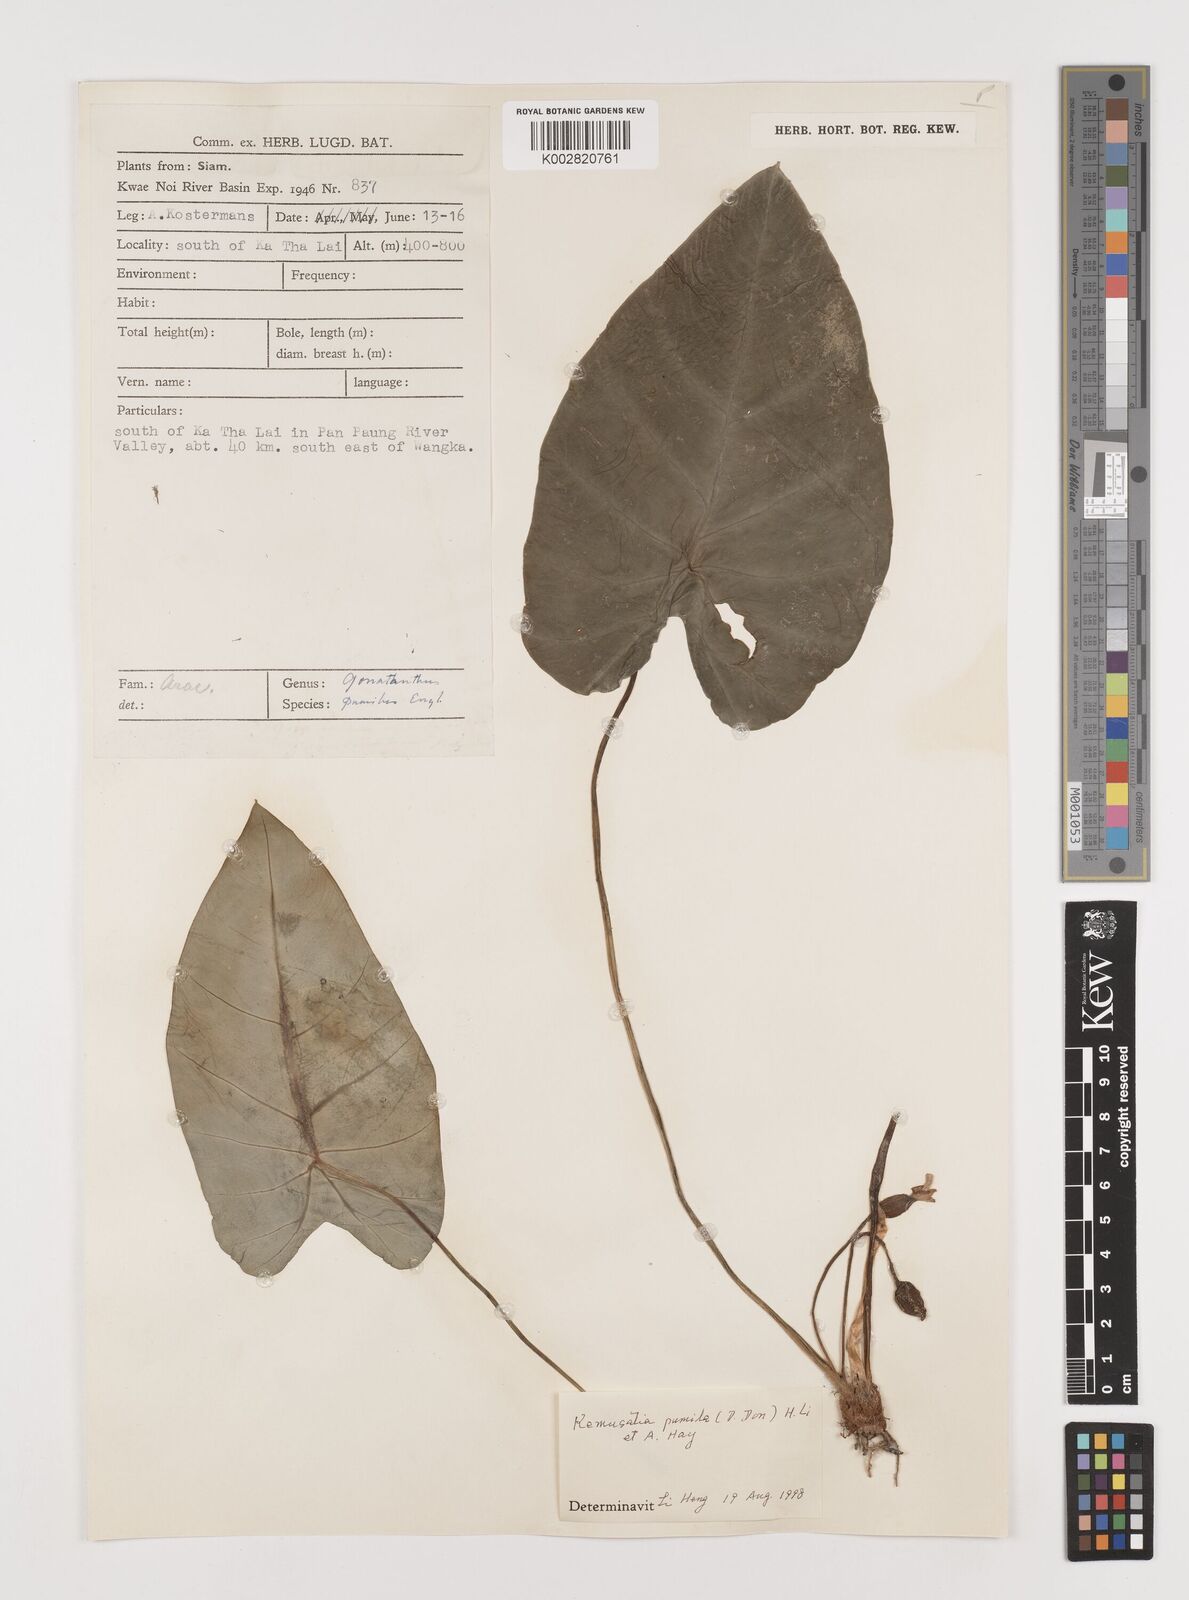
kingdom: Plantae
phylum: Tracheophyta
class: Liliopsida
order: Alismatales
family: Araceae
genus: Remusatia
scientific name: Remusatia pumila
